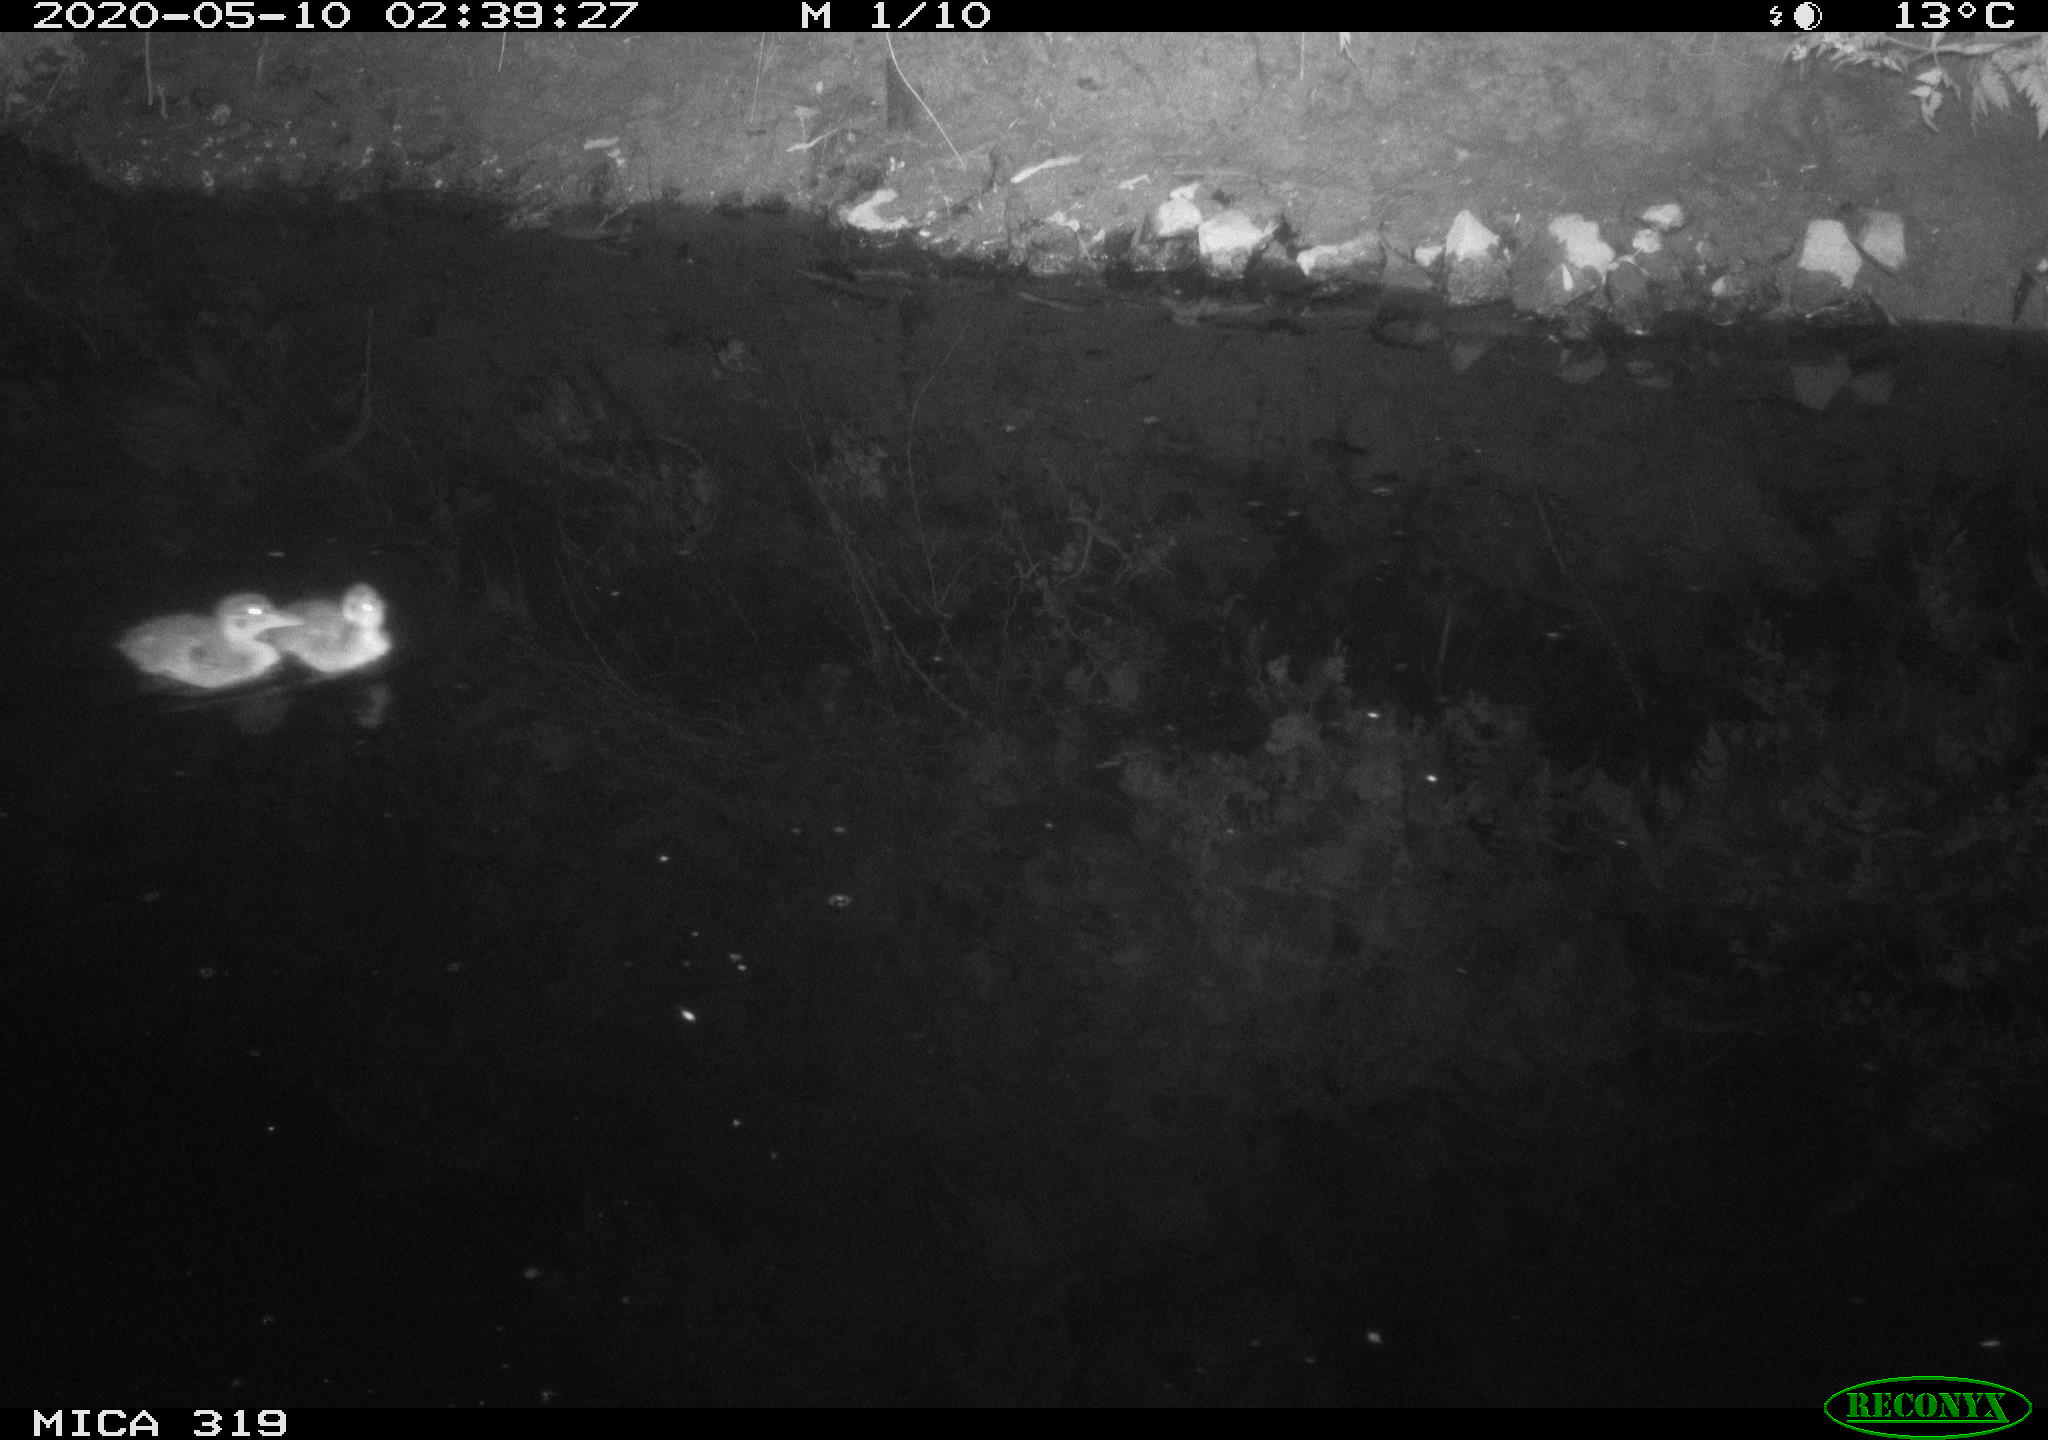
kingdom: Animalia
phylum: Chordata
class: Aves
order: Anseriformes
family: Anatidae
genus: Anas
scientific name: Anas platyrhynchos
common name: Mallard
